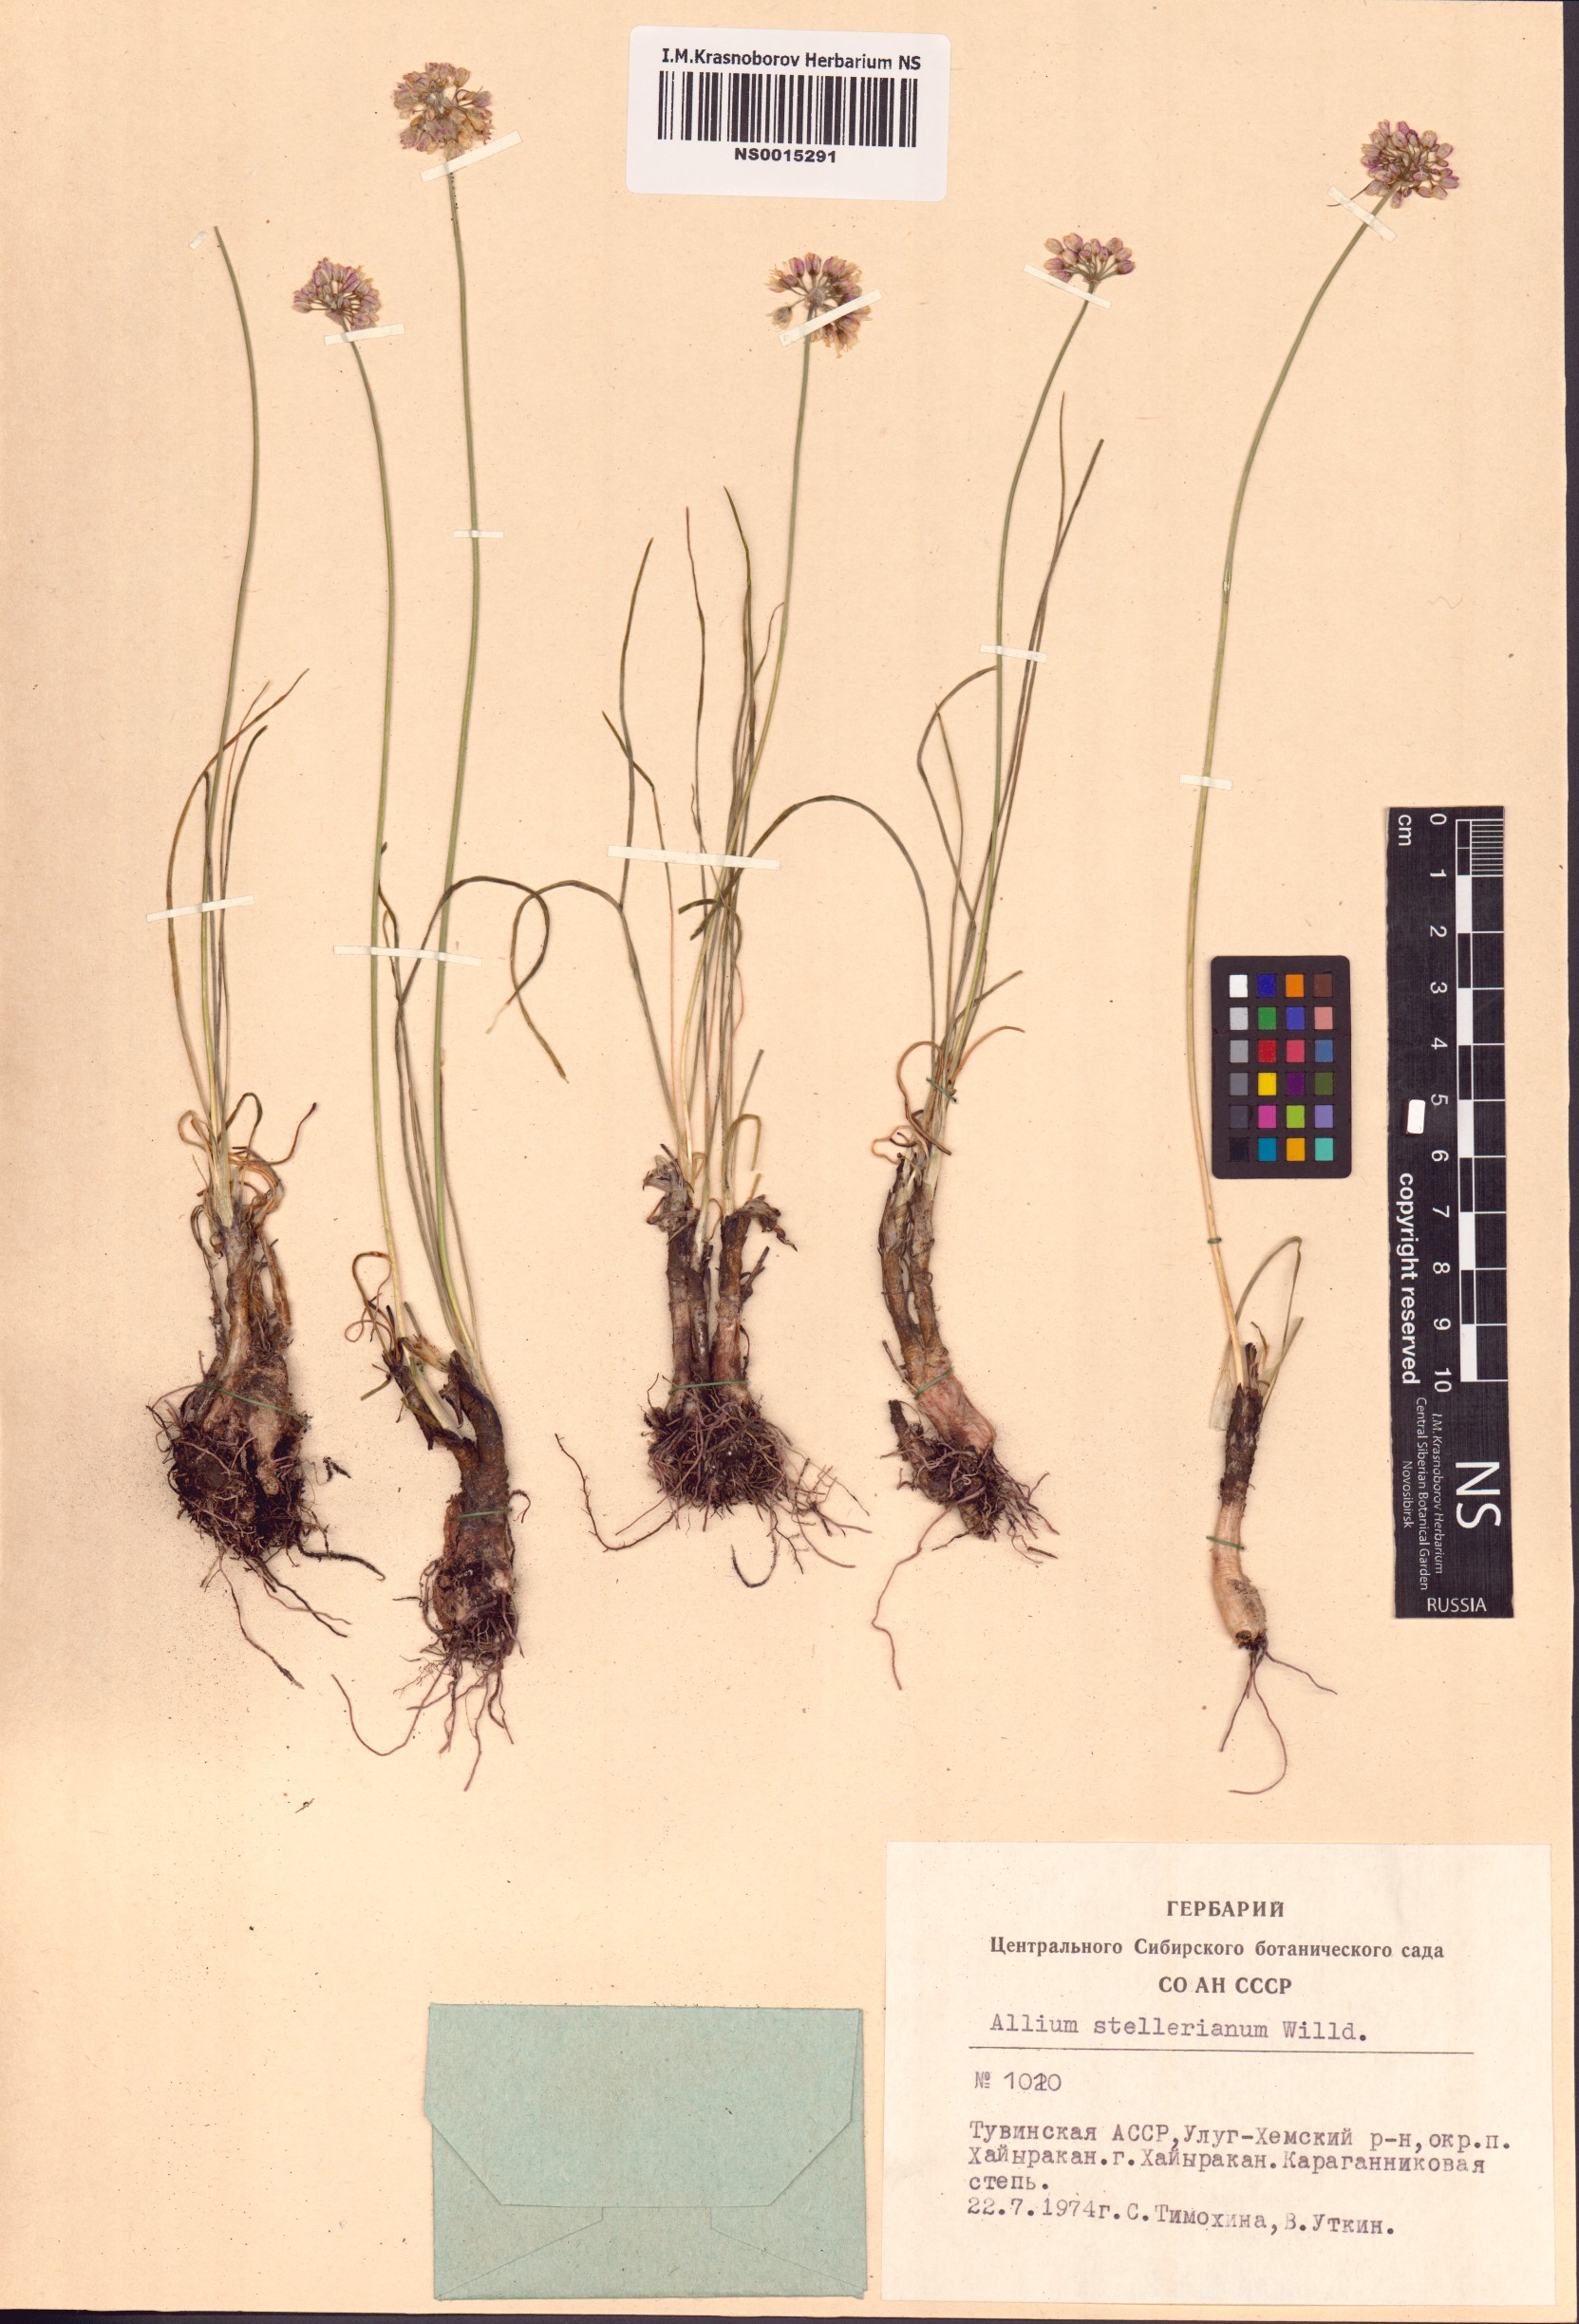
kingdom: Plantae
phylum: Tracheophyta
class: Liliopsida
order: Asparagales
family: Amaryllidaceae
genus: Allium
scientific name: Allium stellerianum
